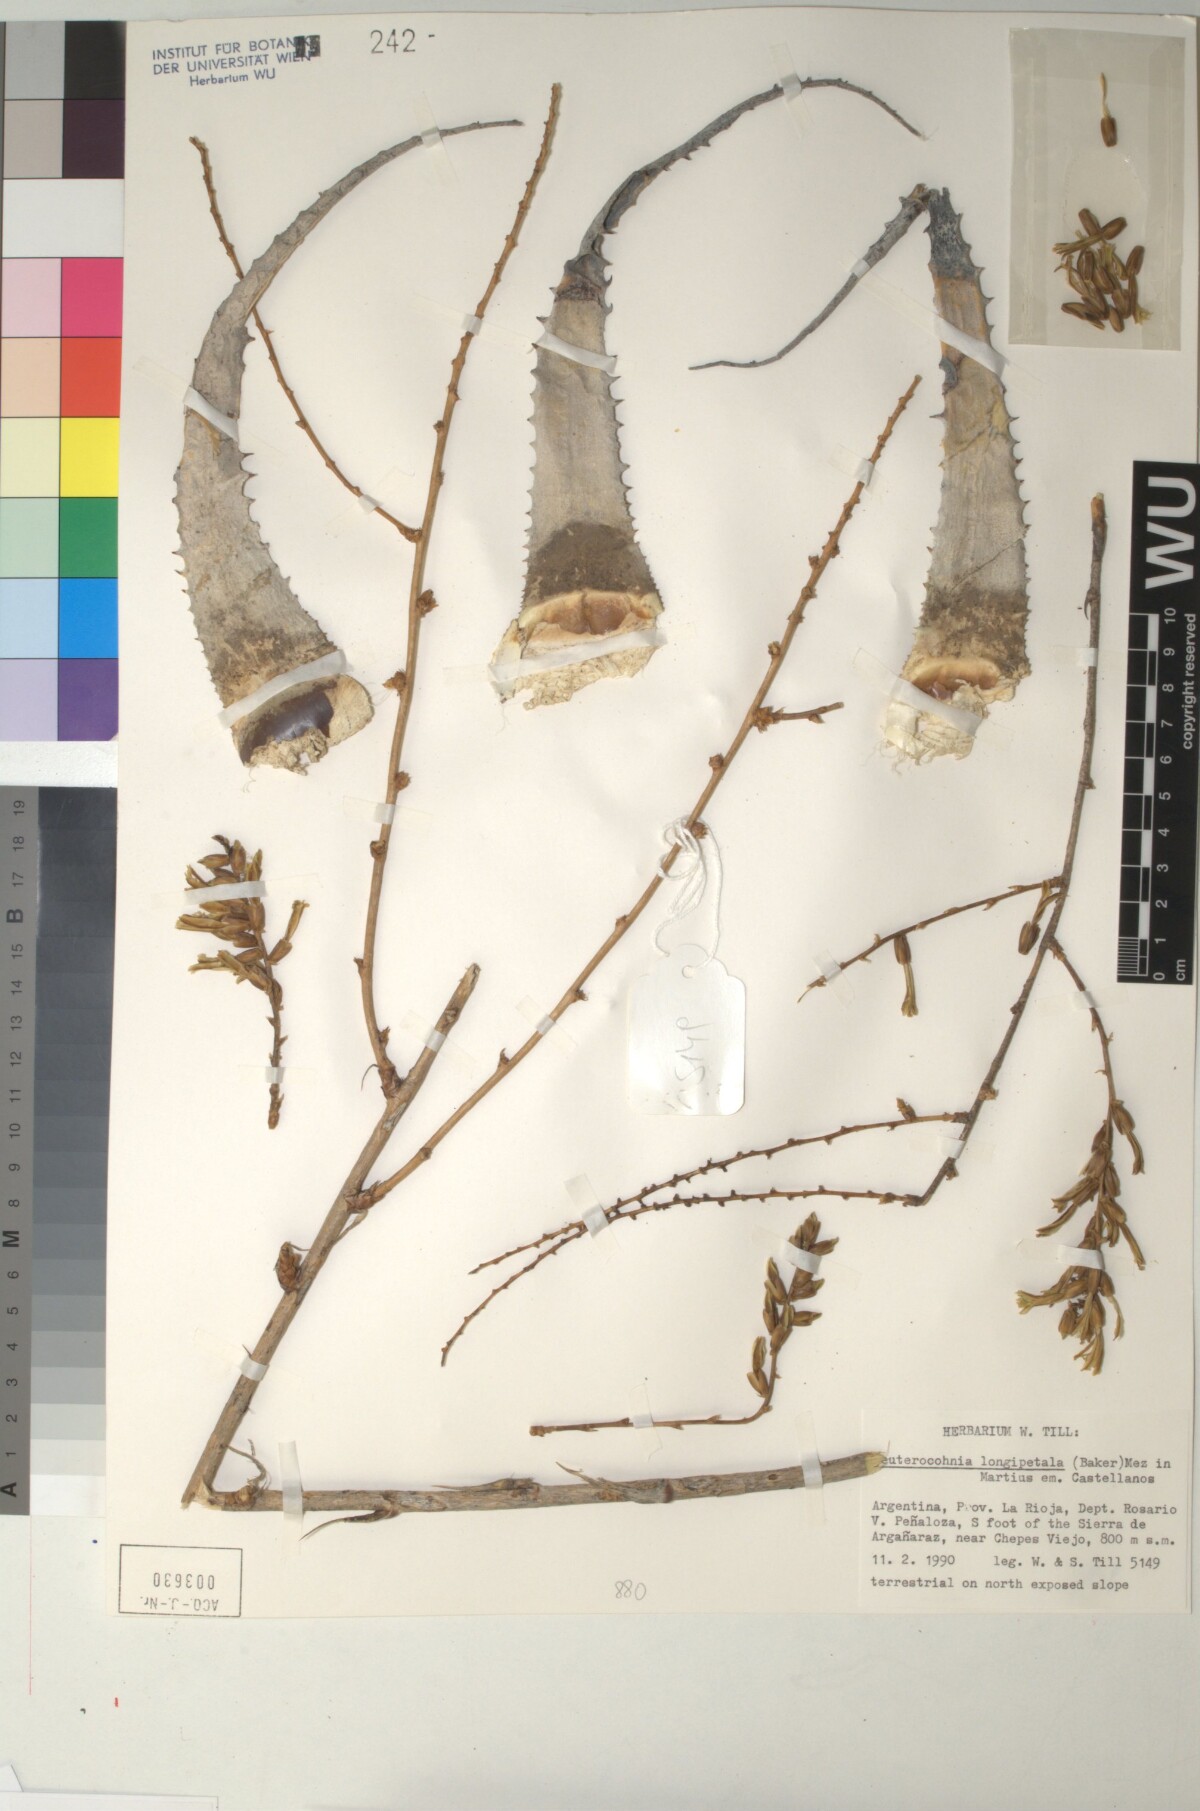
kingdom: Plantae
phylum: Tracheophyta
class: Liliopsida
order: Poales
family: Bromeliaceae
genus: Deuterocohnia
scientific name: Deuterocohnia longipetala
